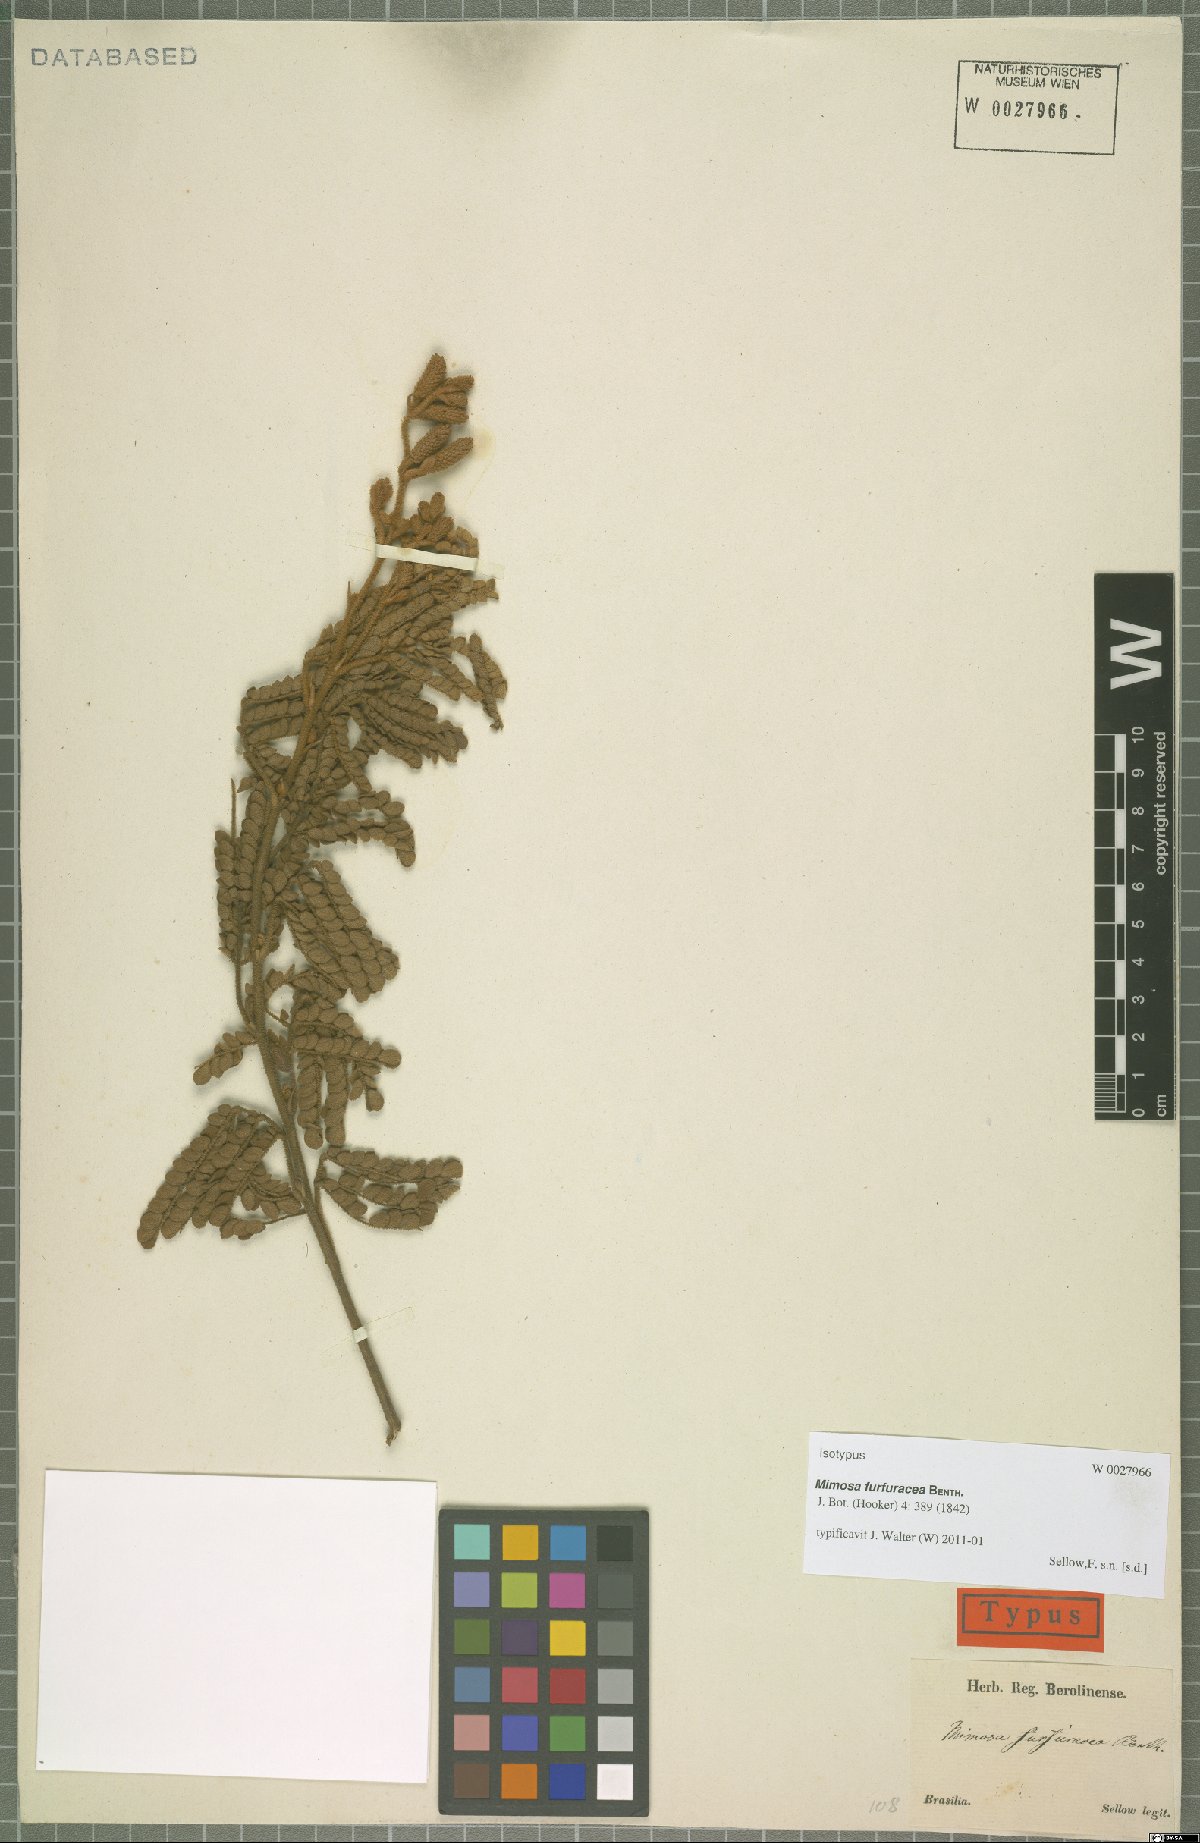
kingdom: Plantae
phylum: Tracheophyta
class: Magnoliopsida
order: Fabales
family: Fabaceae
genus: Mimosa
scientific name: Mimosa furfuracea
